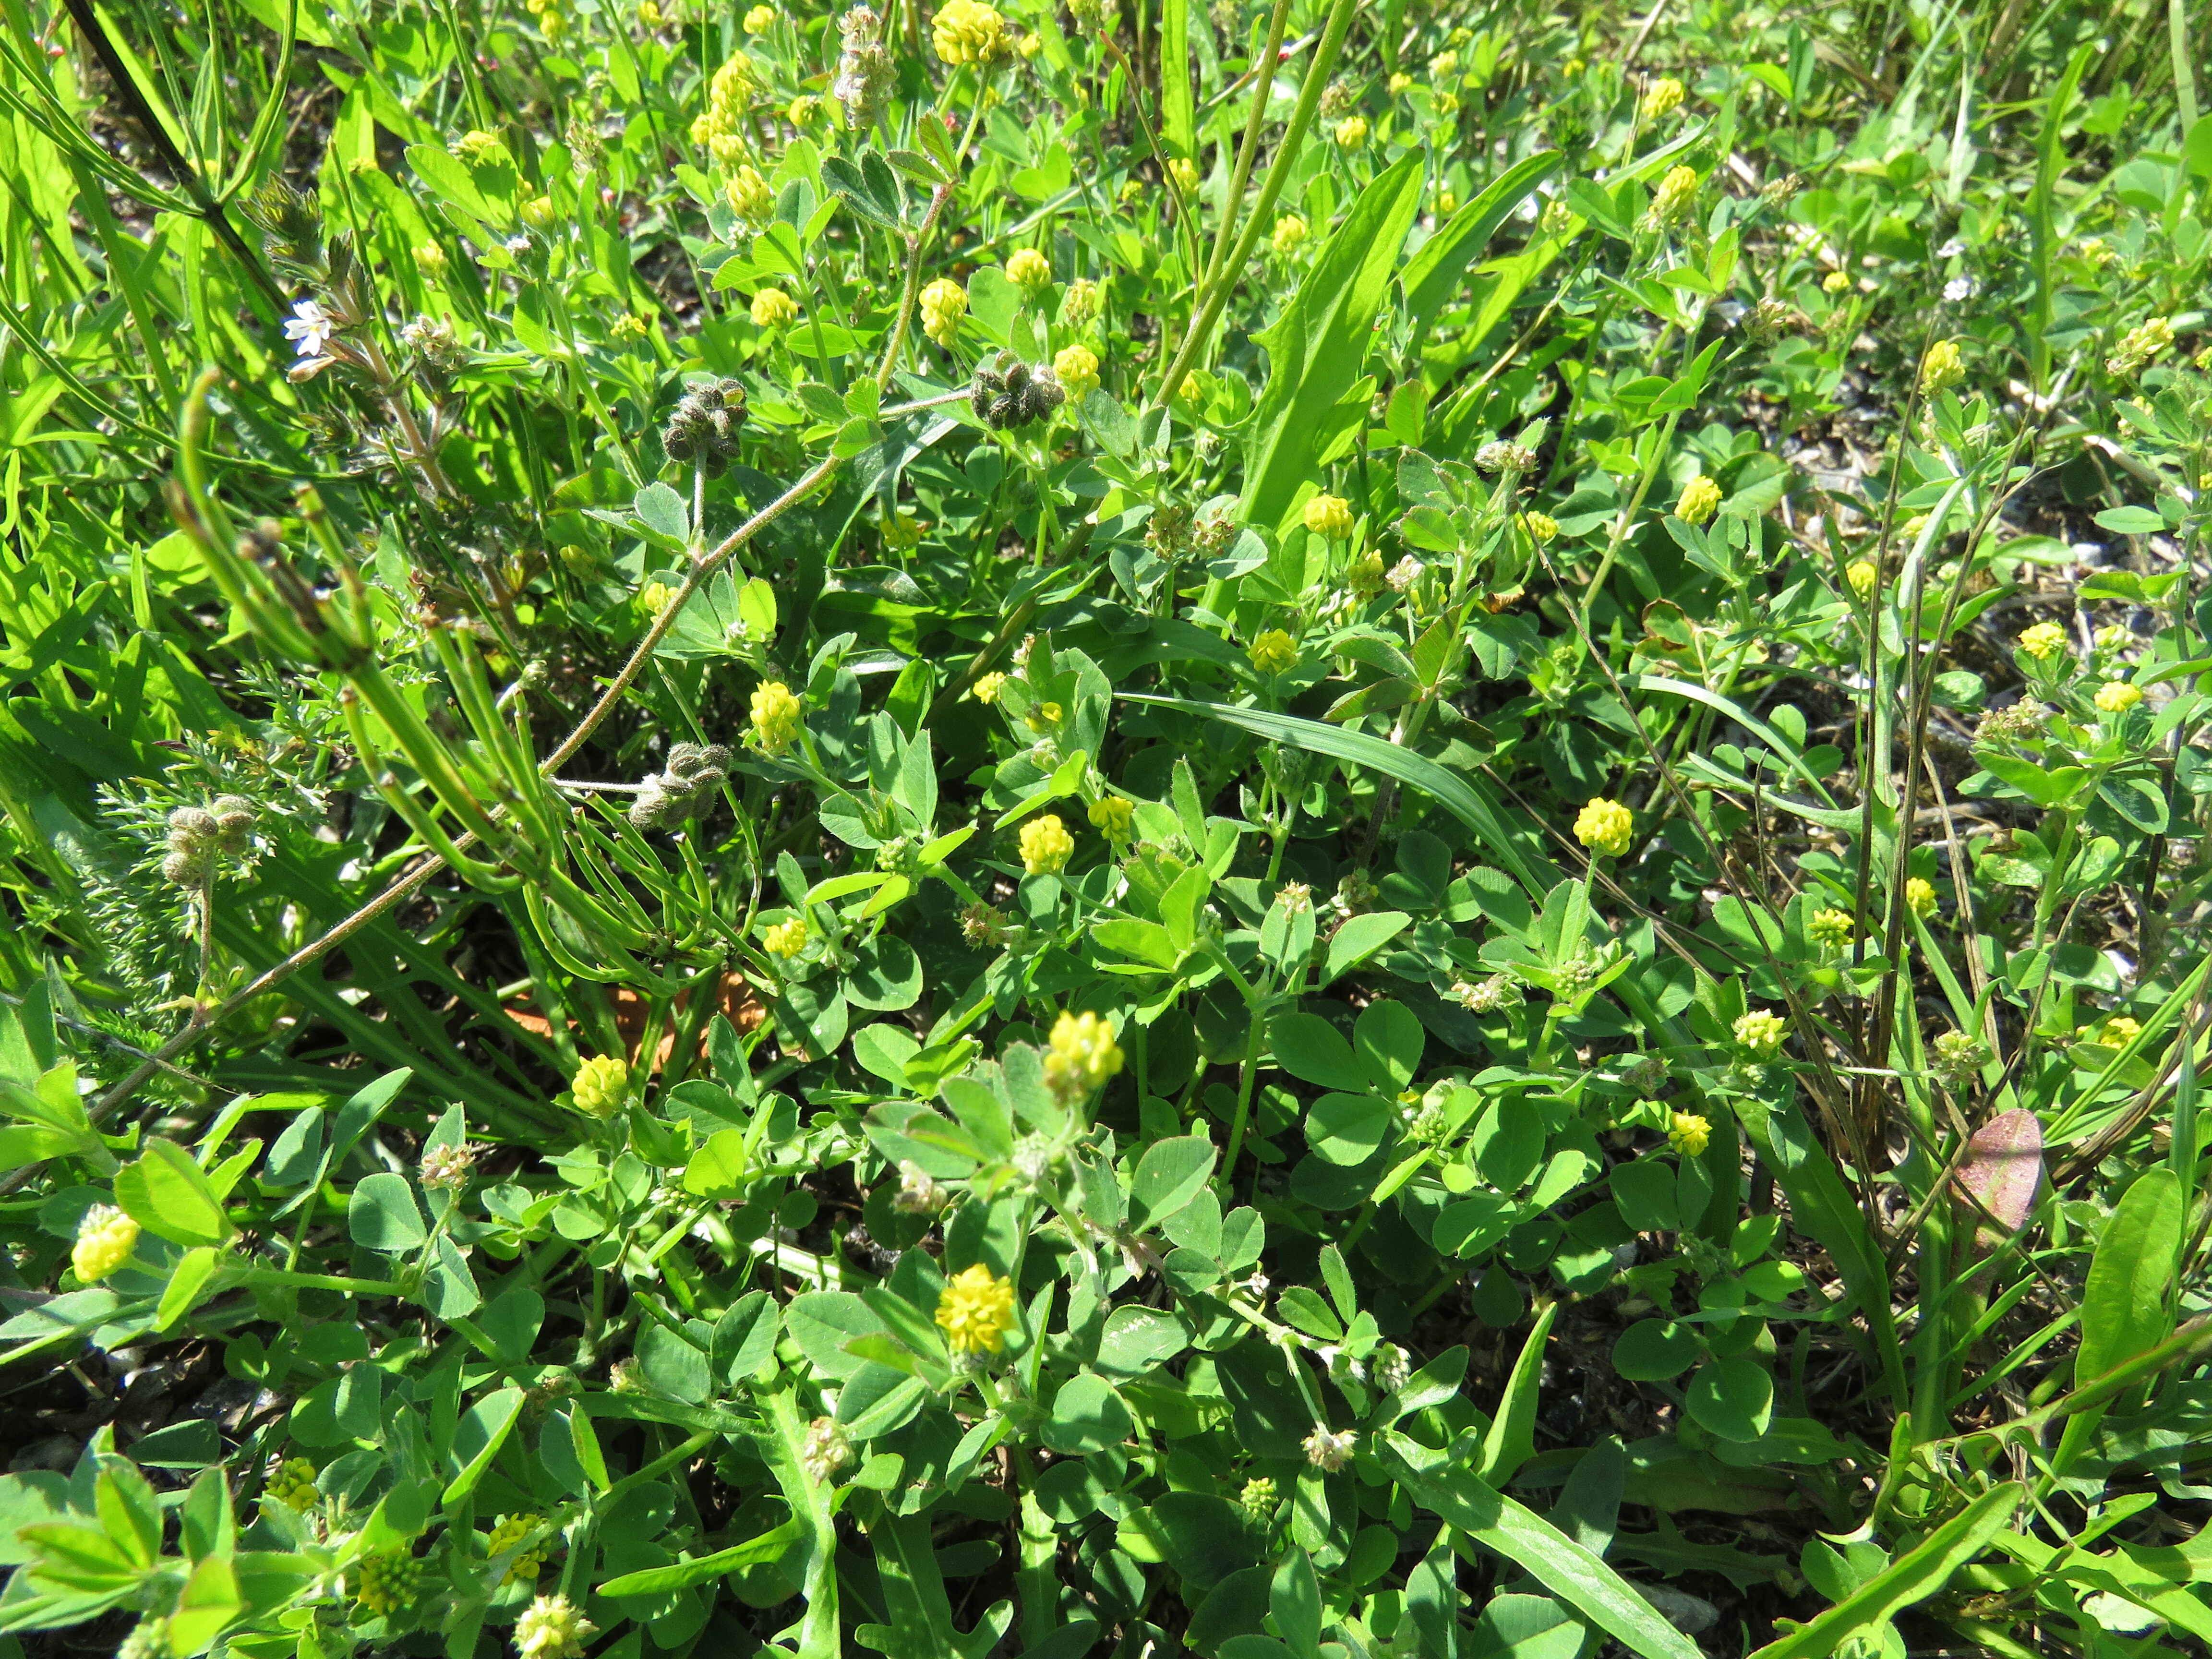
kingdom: Plantae
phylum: Tracheophyta
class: Magnoliopsida
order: Fabales
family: Fabaceae
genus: Medicago
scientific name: Medicago lupulina
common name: Black medick
